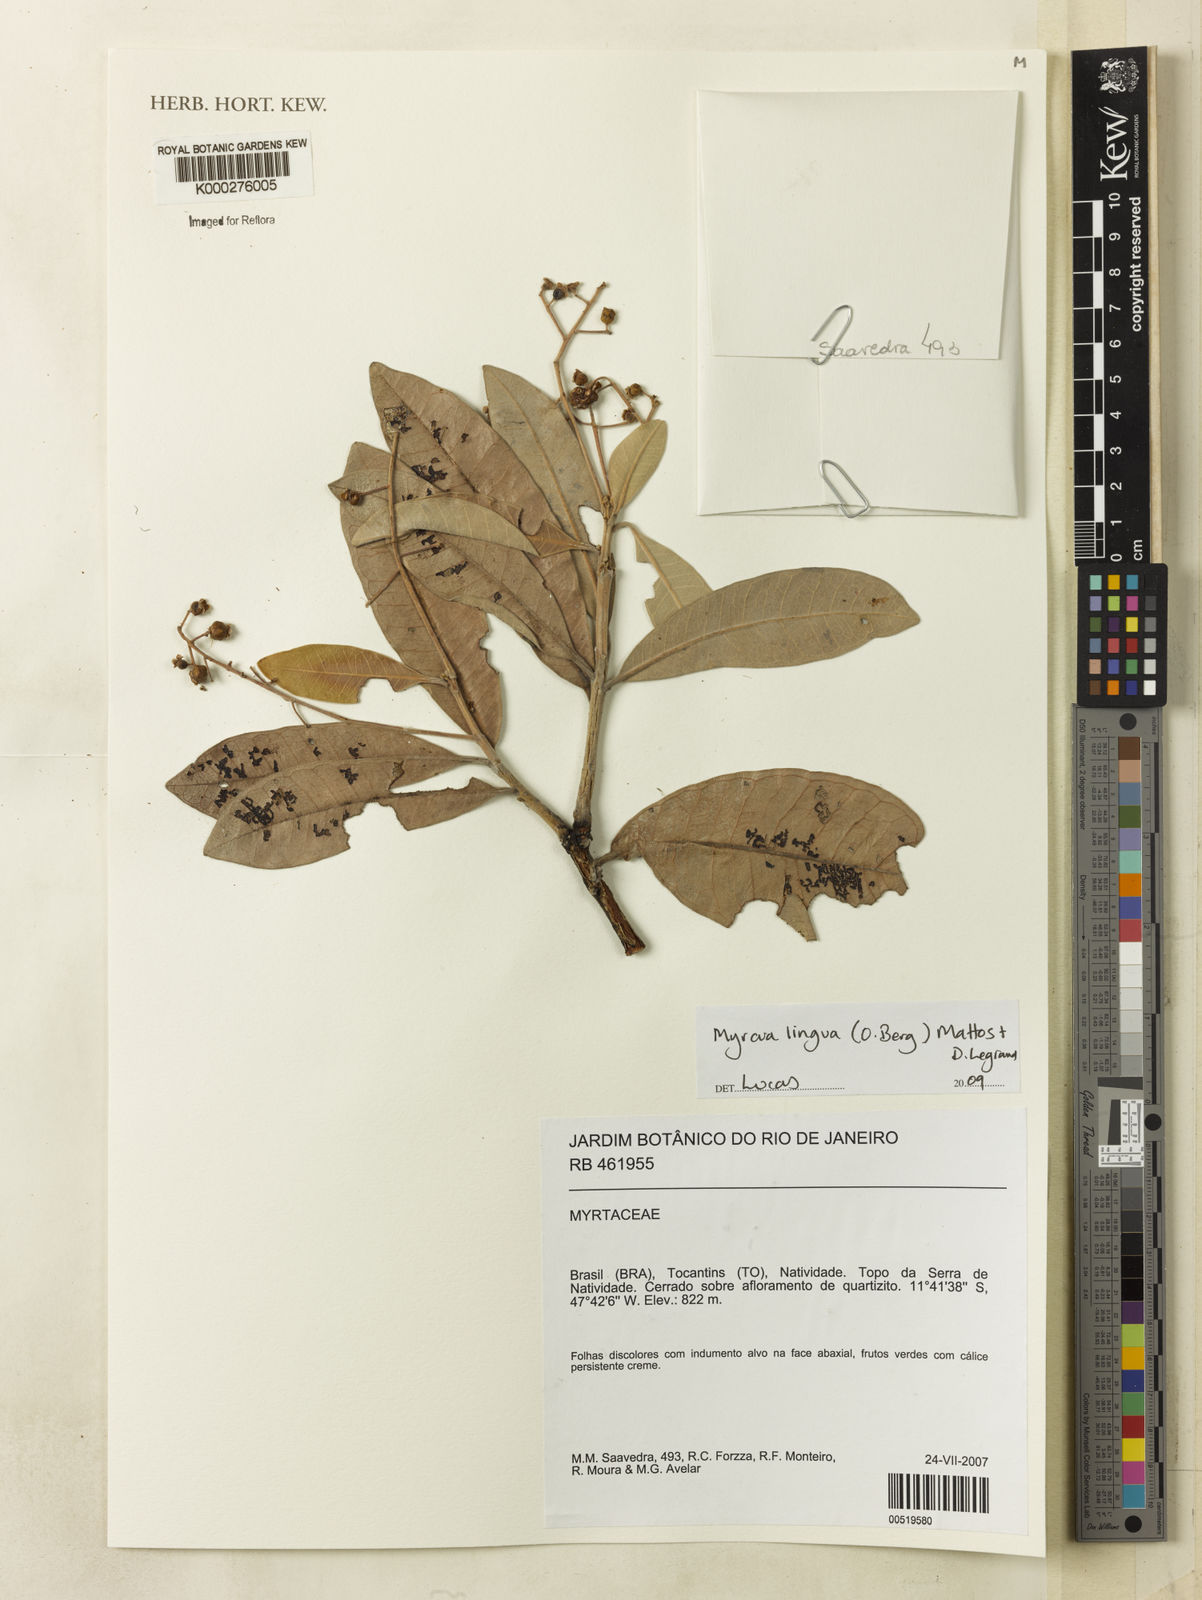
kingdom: Plantae
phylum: Tracheophyta
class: Magnoliopsida
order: Myrtales
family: Myrtaceae
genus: Myrcia
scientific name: Myrcia guianensis
